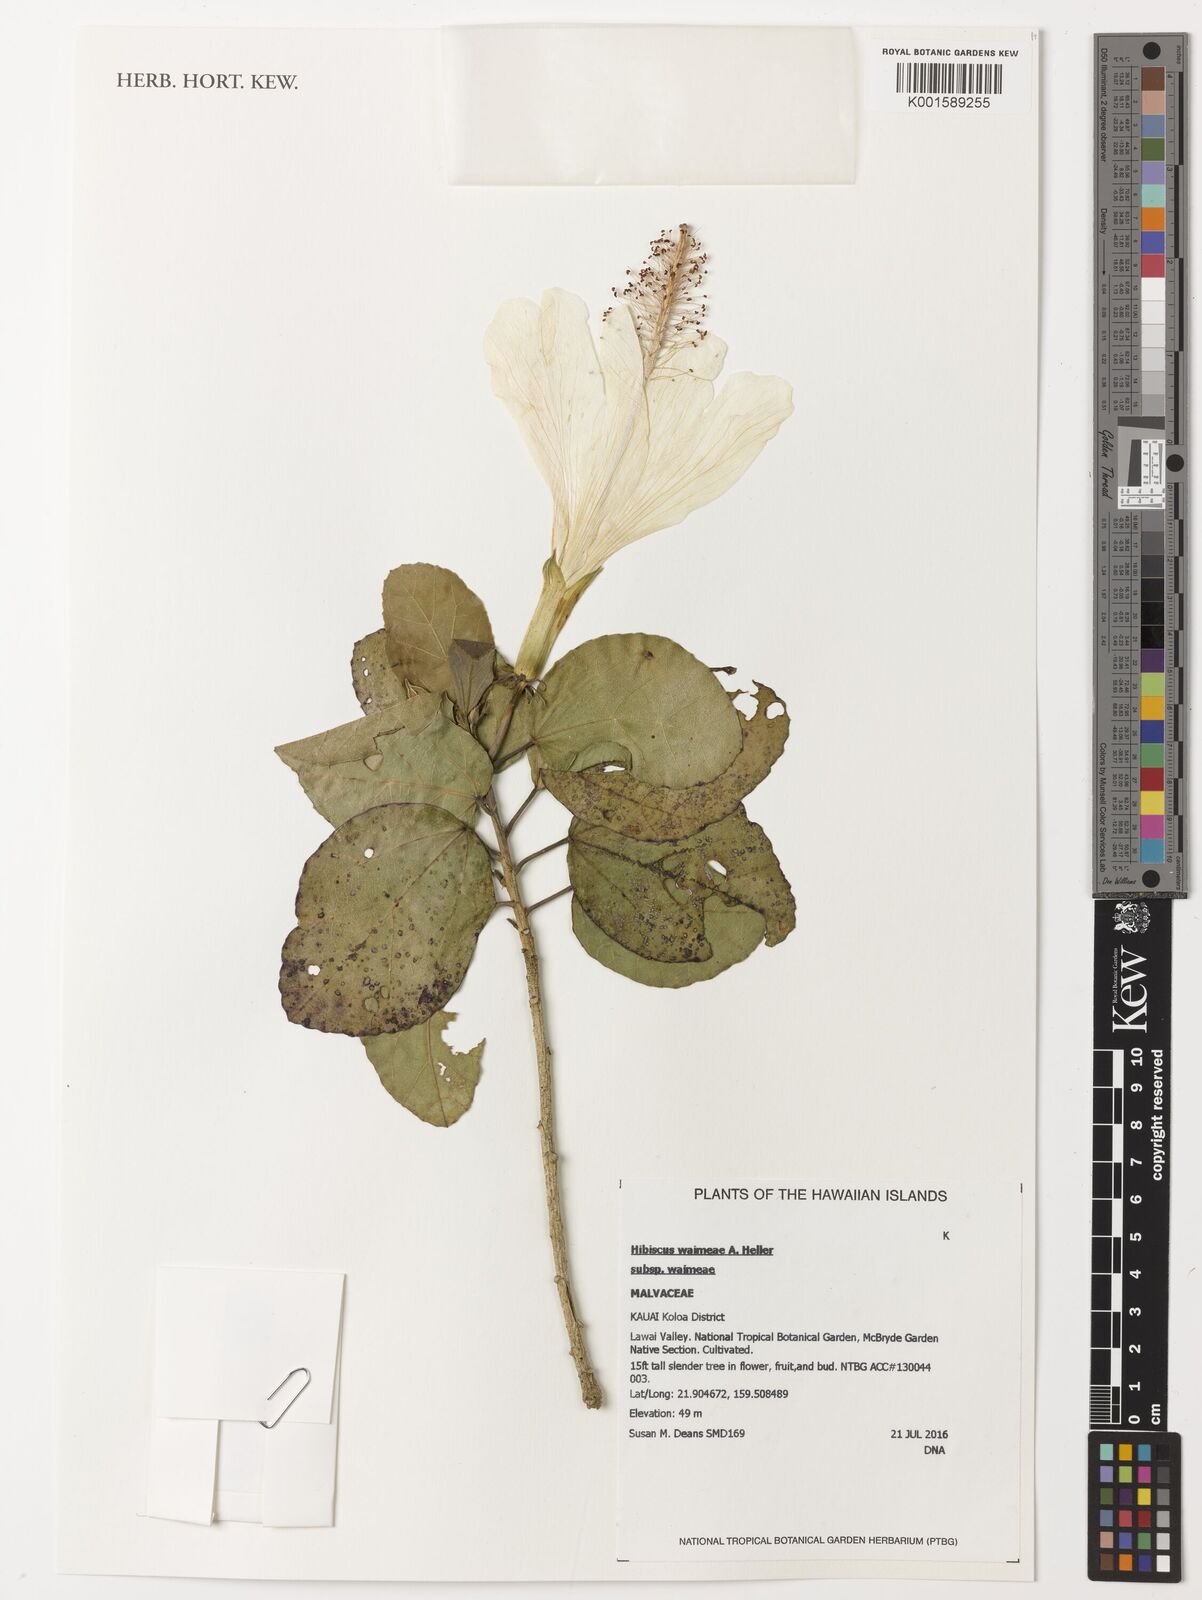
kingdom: Plantae
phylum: Tracheophyta
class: Magnoliopsida
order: Malvales
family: Malvaceae
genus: Hibiscus
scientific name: Hibiscus waimeae
